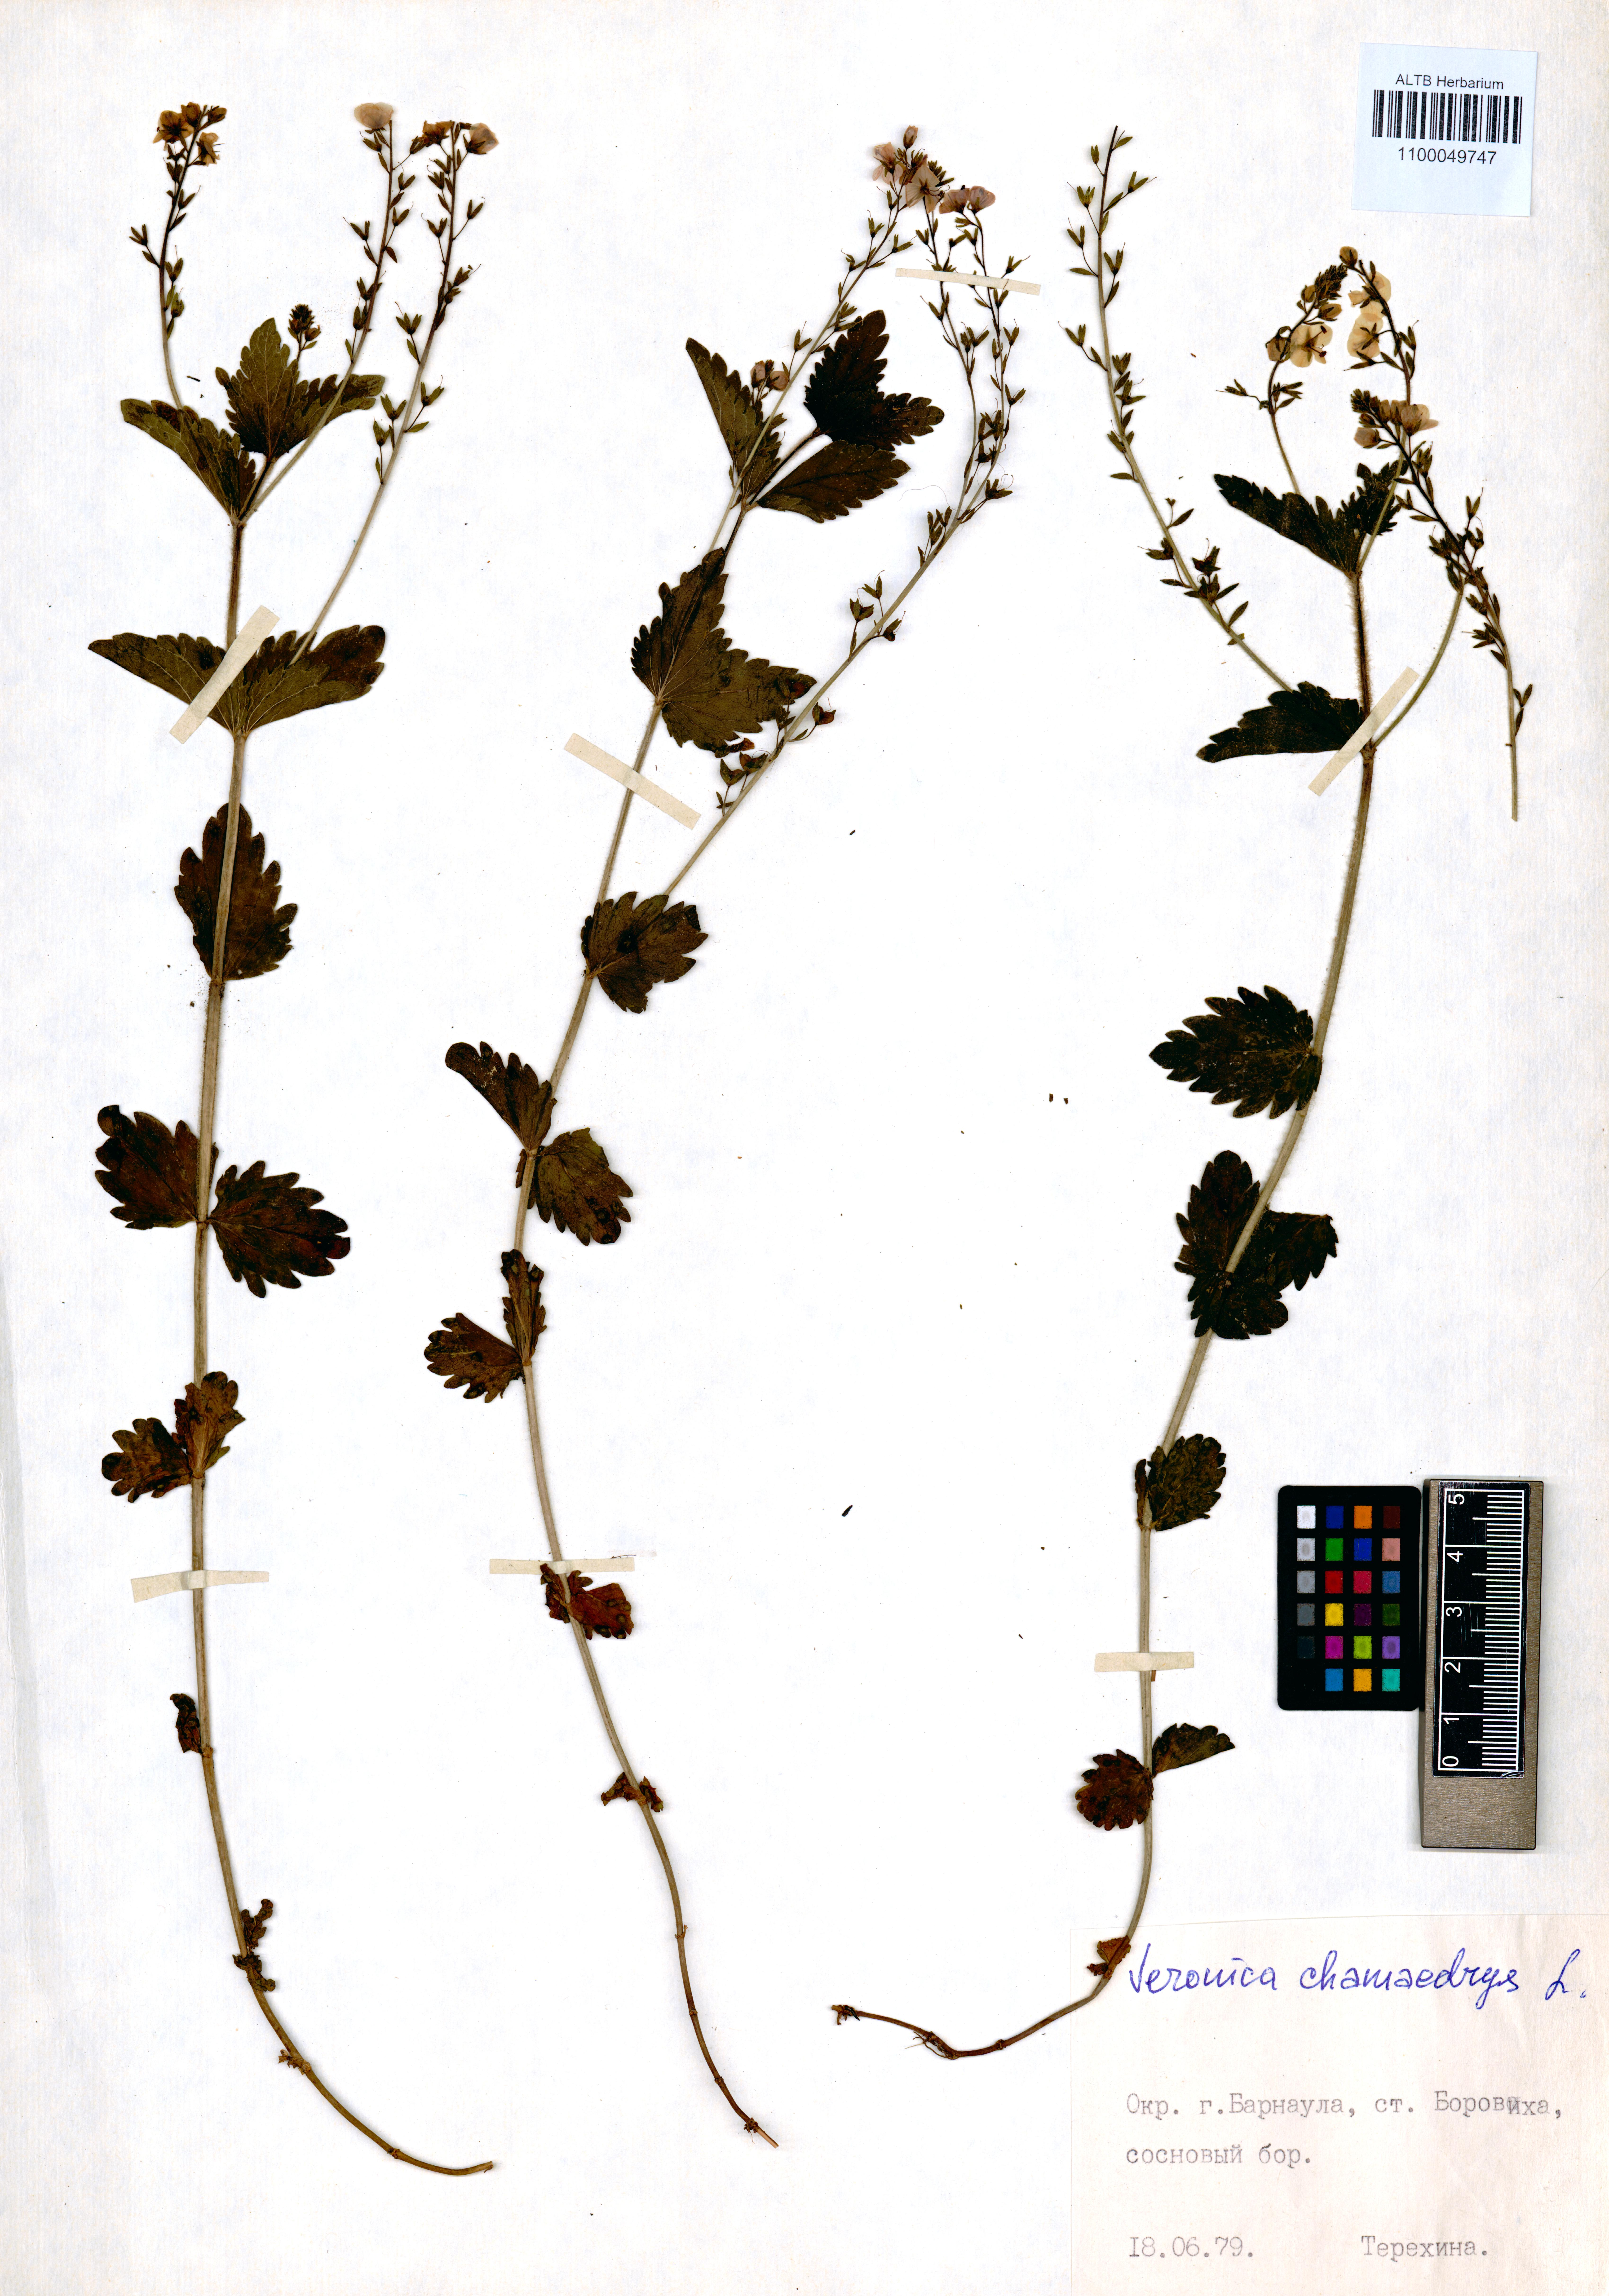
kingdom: Plantae
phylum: Tracheophyta
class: Magnoliopsida
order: Lamiales
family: Plantaginaceae
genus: Veronica
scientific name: Veronica chamaedrys
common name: Germander speedwell
